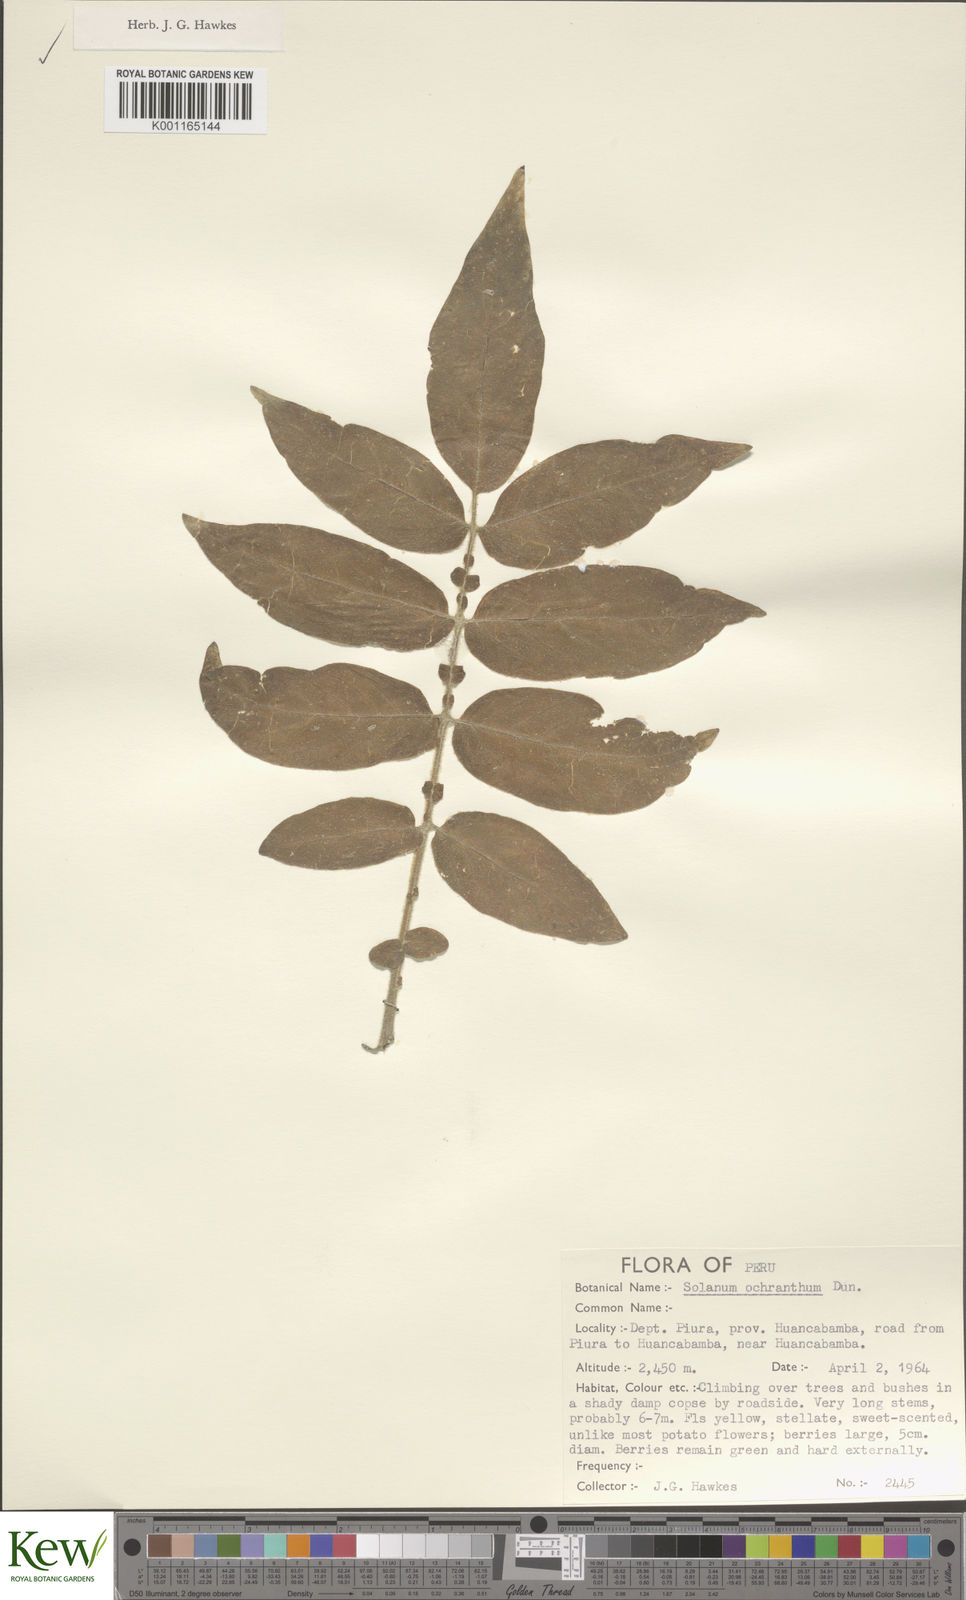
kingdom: Plantae
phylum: Tracheophyta
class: Magnoliopsida
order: Solanales
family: Solanaceae
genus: Solanum
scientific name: Solanum ochranthum
